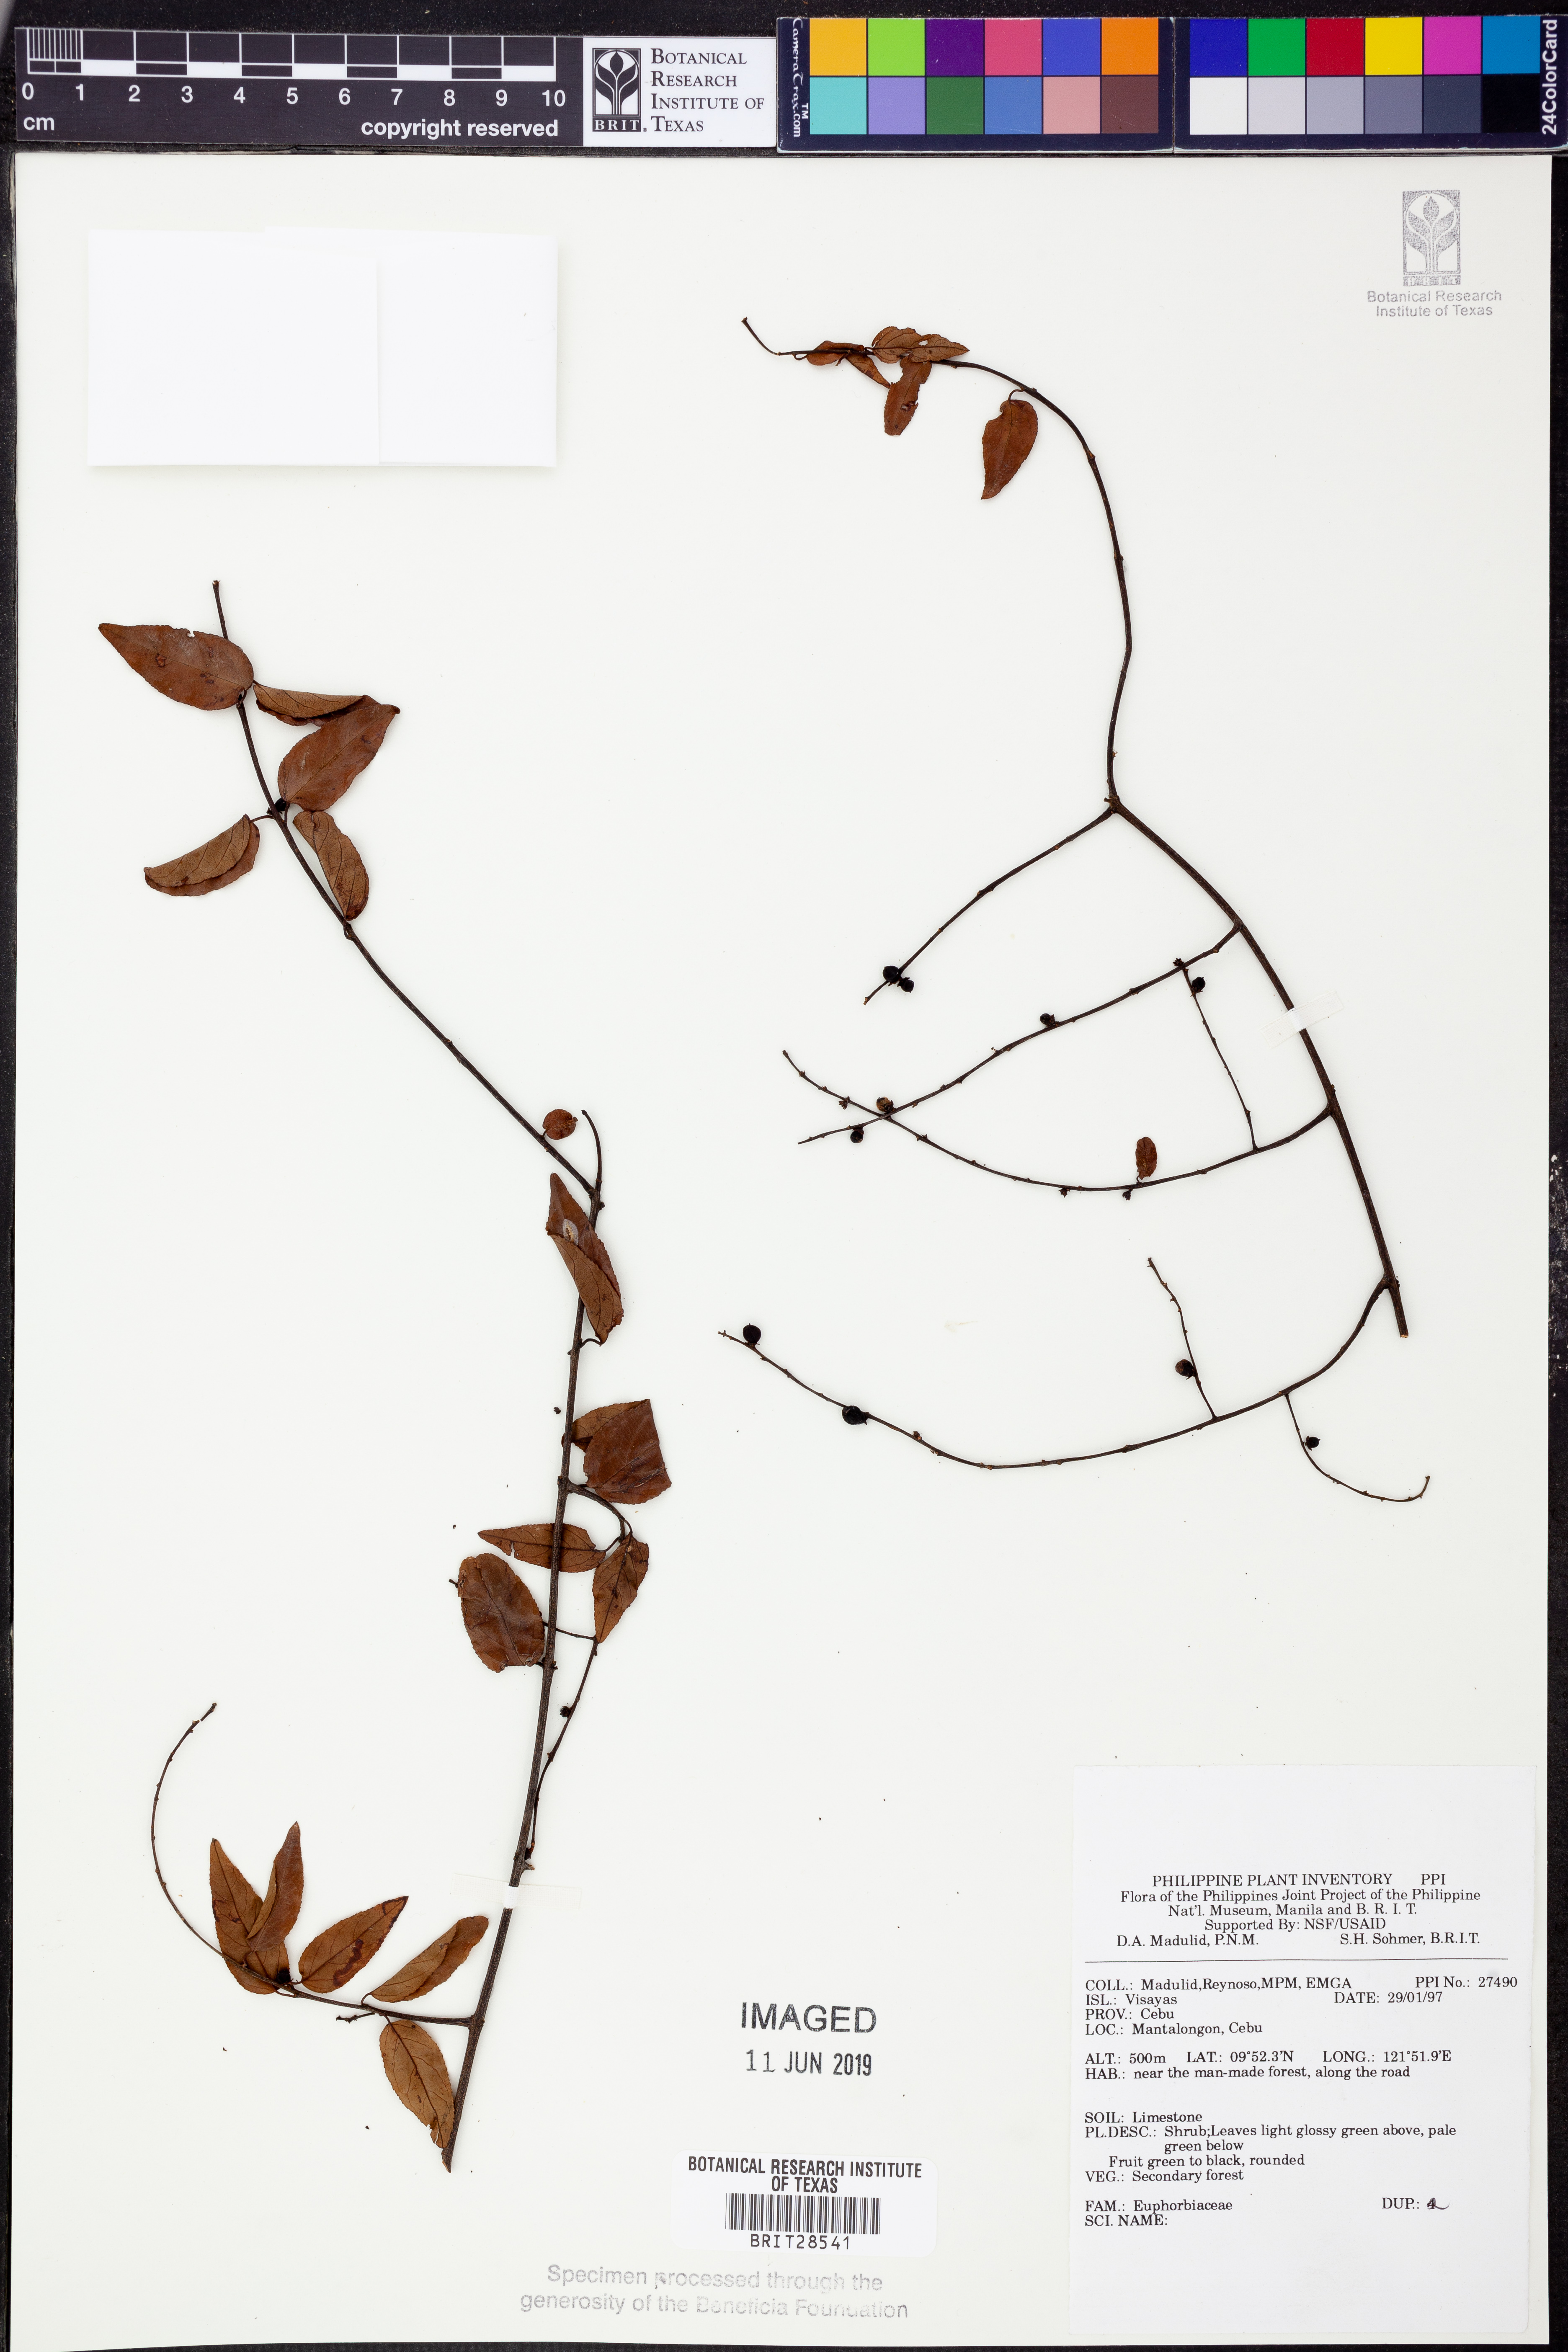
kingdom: Plantae
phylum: Tracheophyta
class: Magnoliopsida
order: Malpighiales
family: Euphorbiaceae
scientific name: Euphorbiaceae
